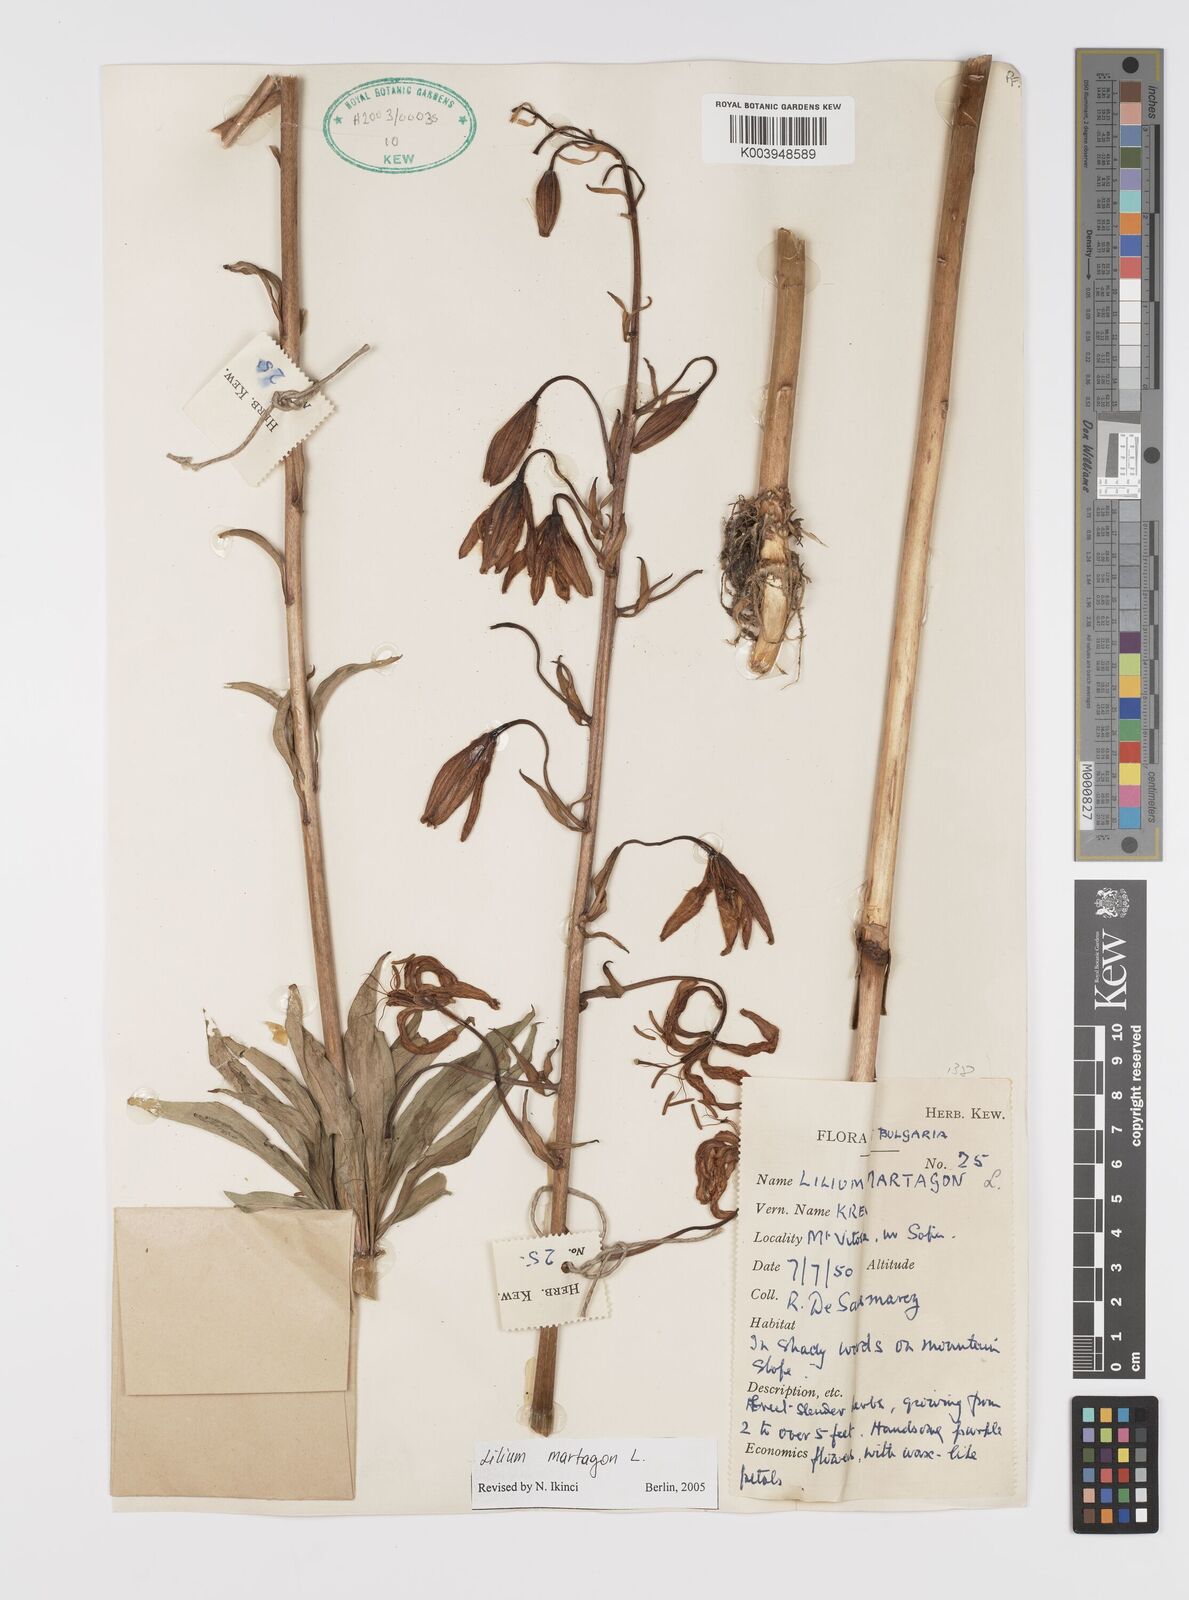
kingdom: Plantae
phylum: Tracheophyta
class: Liliopsida
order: Liliales
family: Liliaceae
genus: Lilium
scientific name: Lilium martagon
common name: Martagon lily
